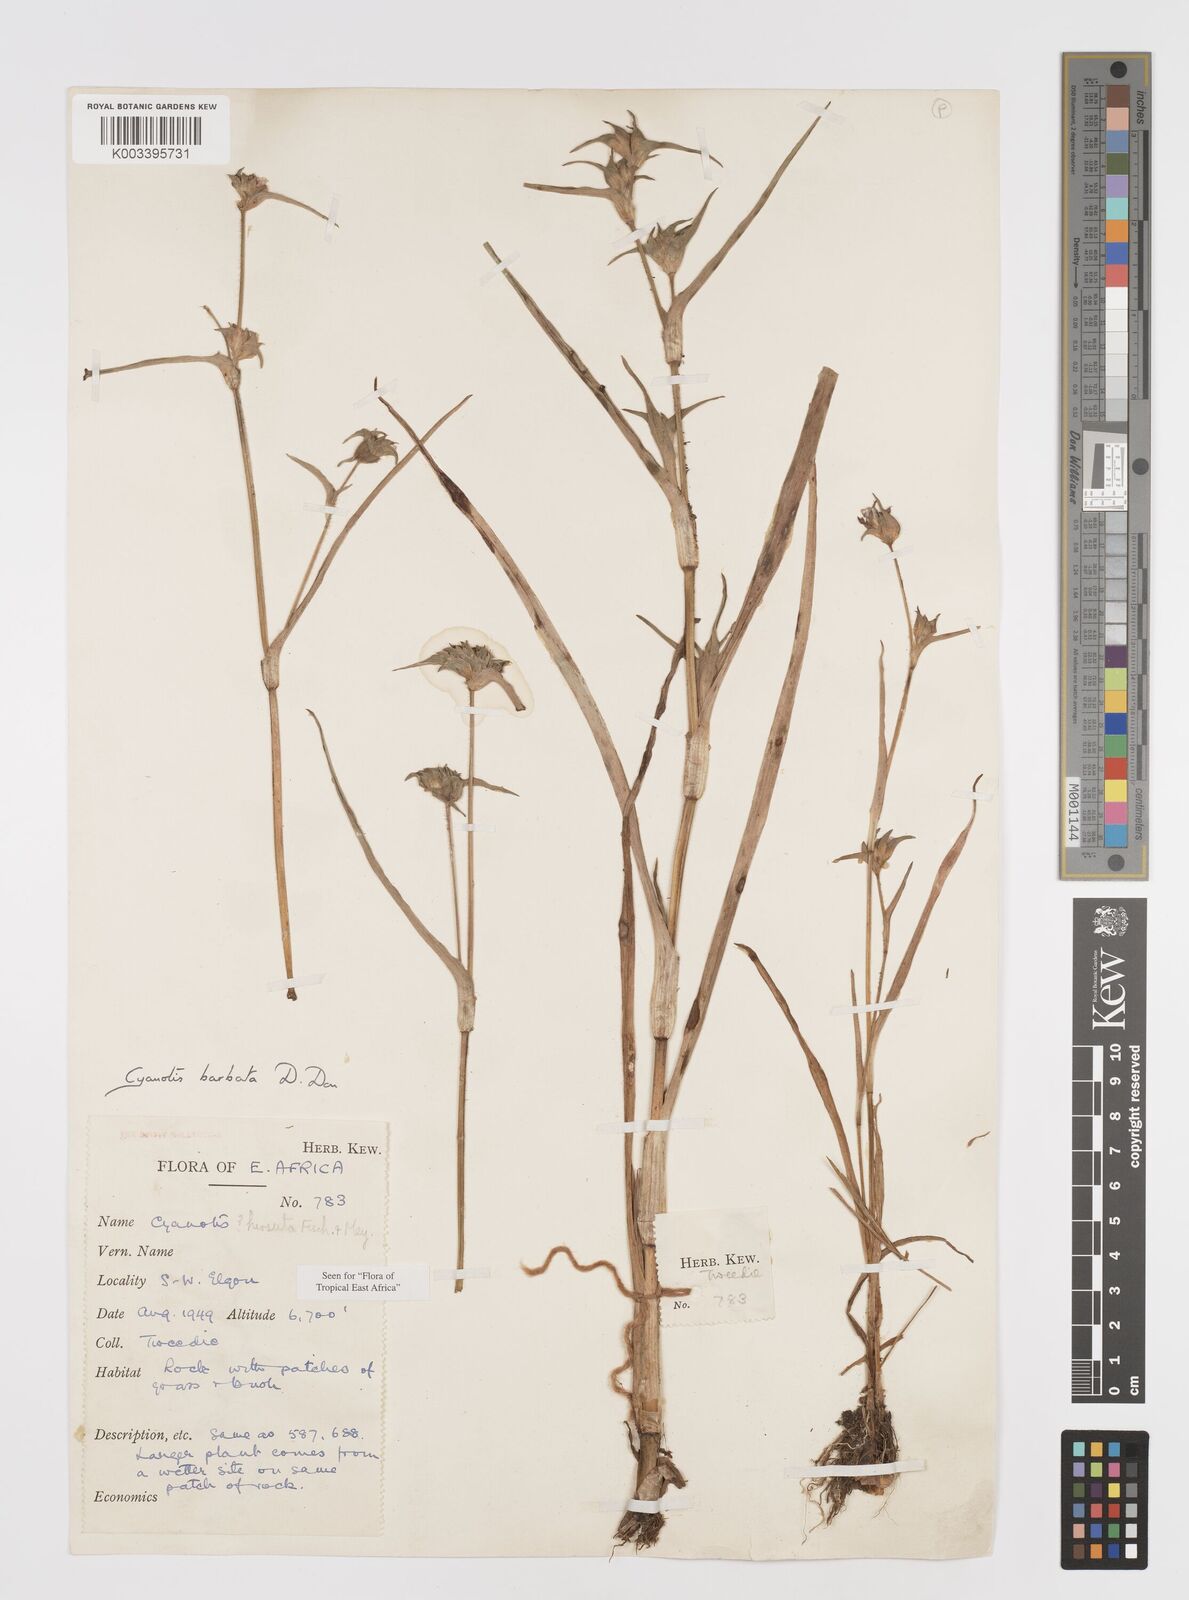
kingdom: Plantae
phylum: Tracheophyta
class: Liliopsida
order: Commelinales
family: Commelinaceae
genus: Cyanotis
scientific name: Cyanotis vaga
